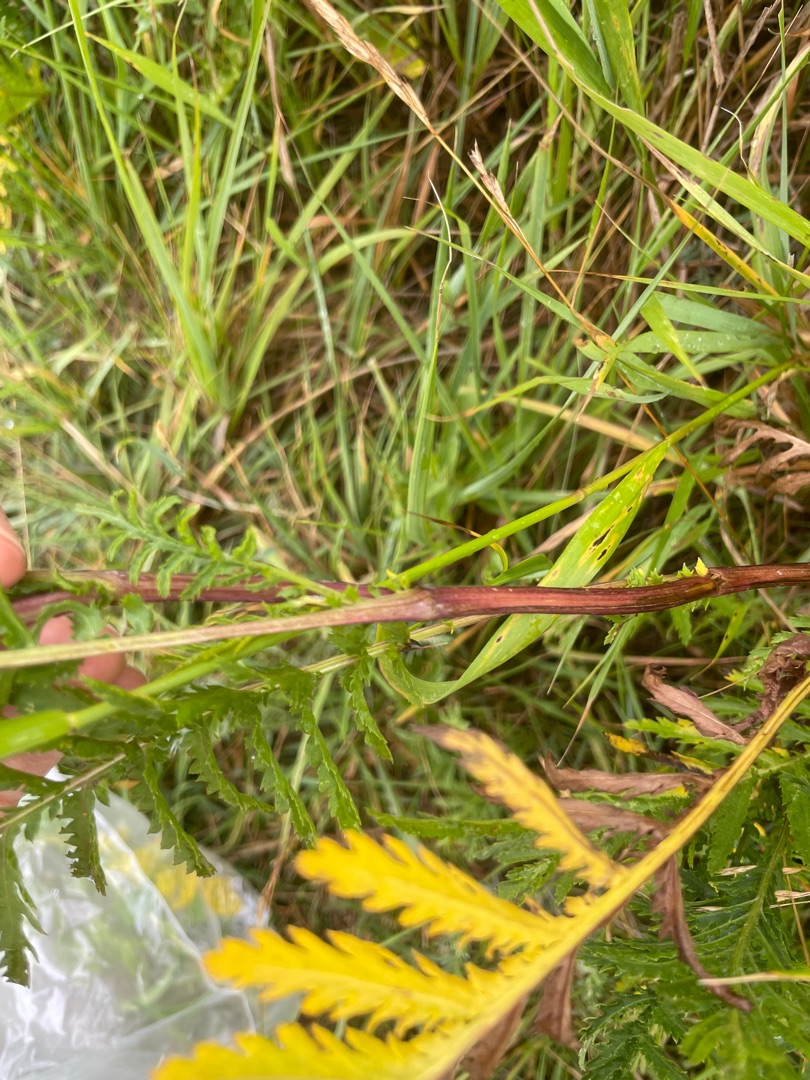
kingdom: Plantae
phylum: Tracheophyta
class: Magnoliopsida
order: Asterales
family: Asteraceae
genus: Tanacetum
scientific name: Tanacetum vulgare
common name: Rejnfan
